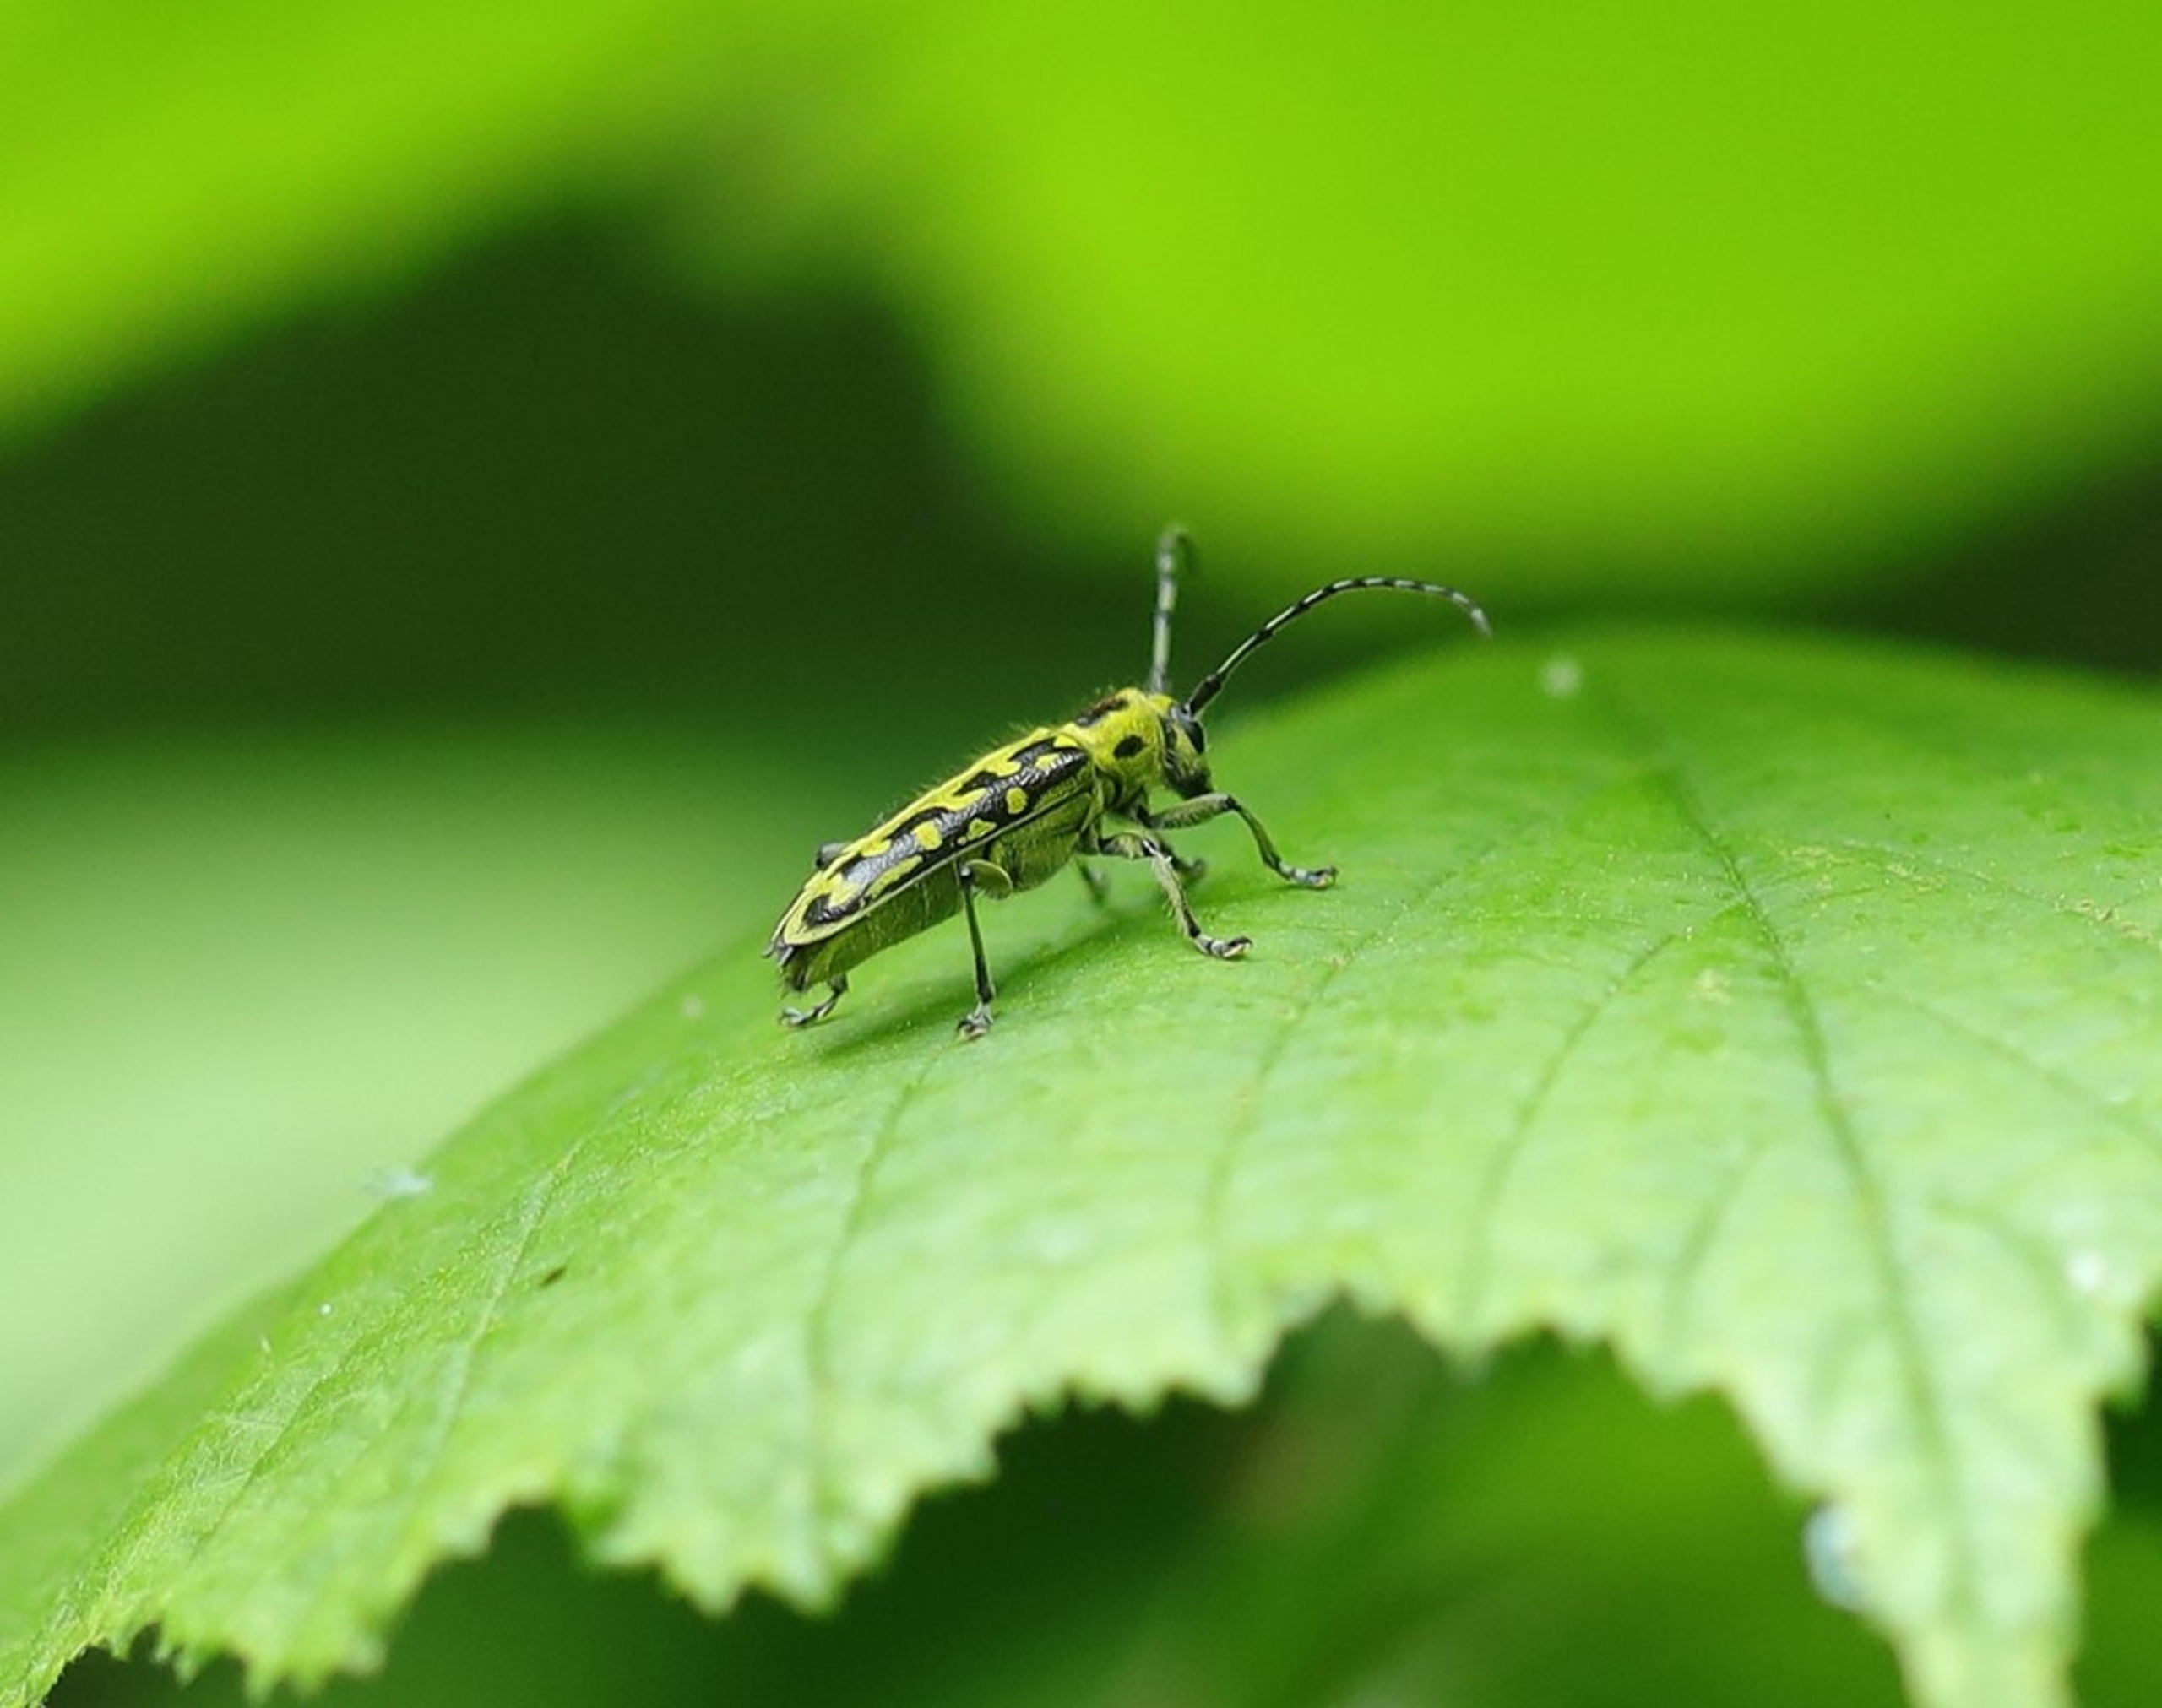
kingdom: Animalia
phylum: Arthropoda
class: Insecta
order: Coleoptera
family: Cerambycidae
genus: Saperda
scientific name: Saperda scalaris
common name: Stigebuk
